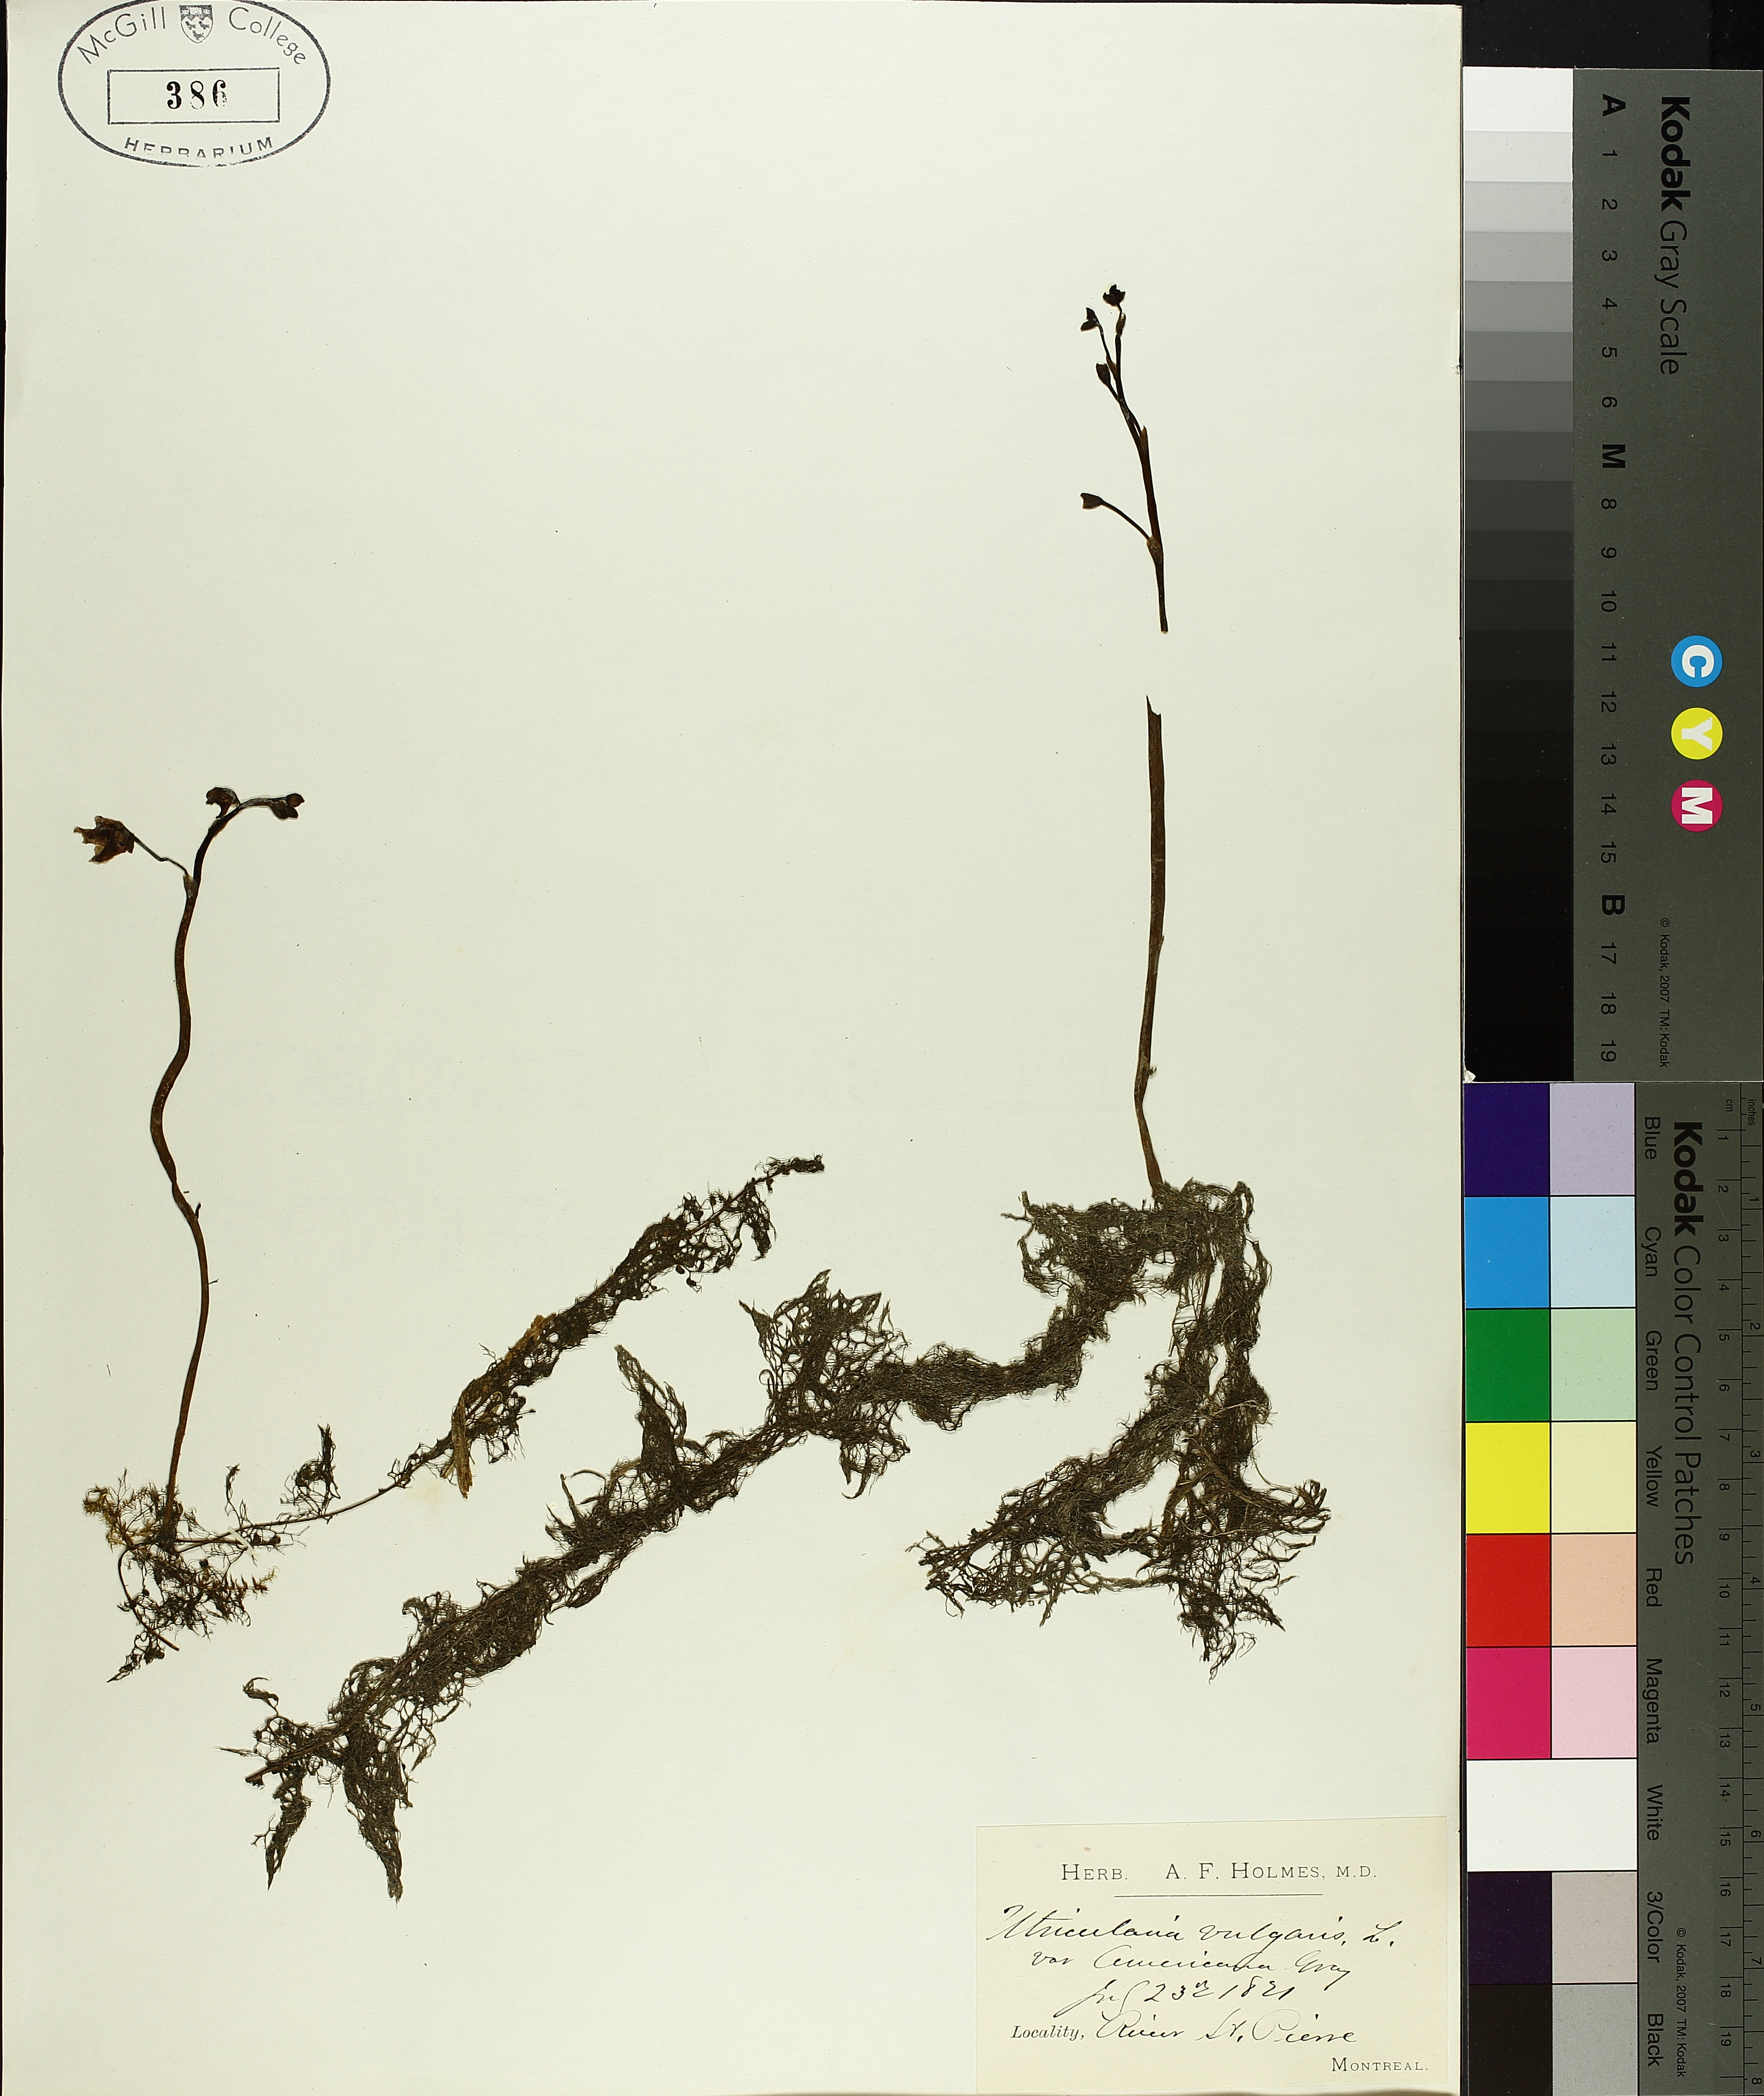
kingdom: Plantae
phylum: Tracheophyta
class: Magnoliopsida
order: Lamiales
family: Lentibulariaceae
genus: Utricularia
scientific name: Utricularia macrorhiza
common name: Common bladderwort
